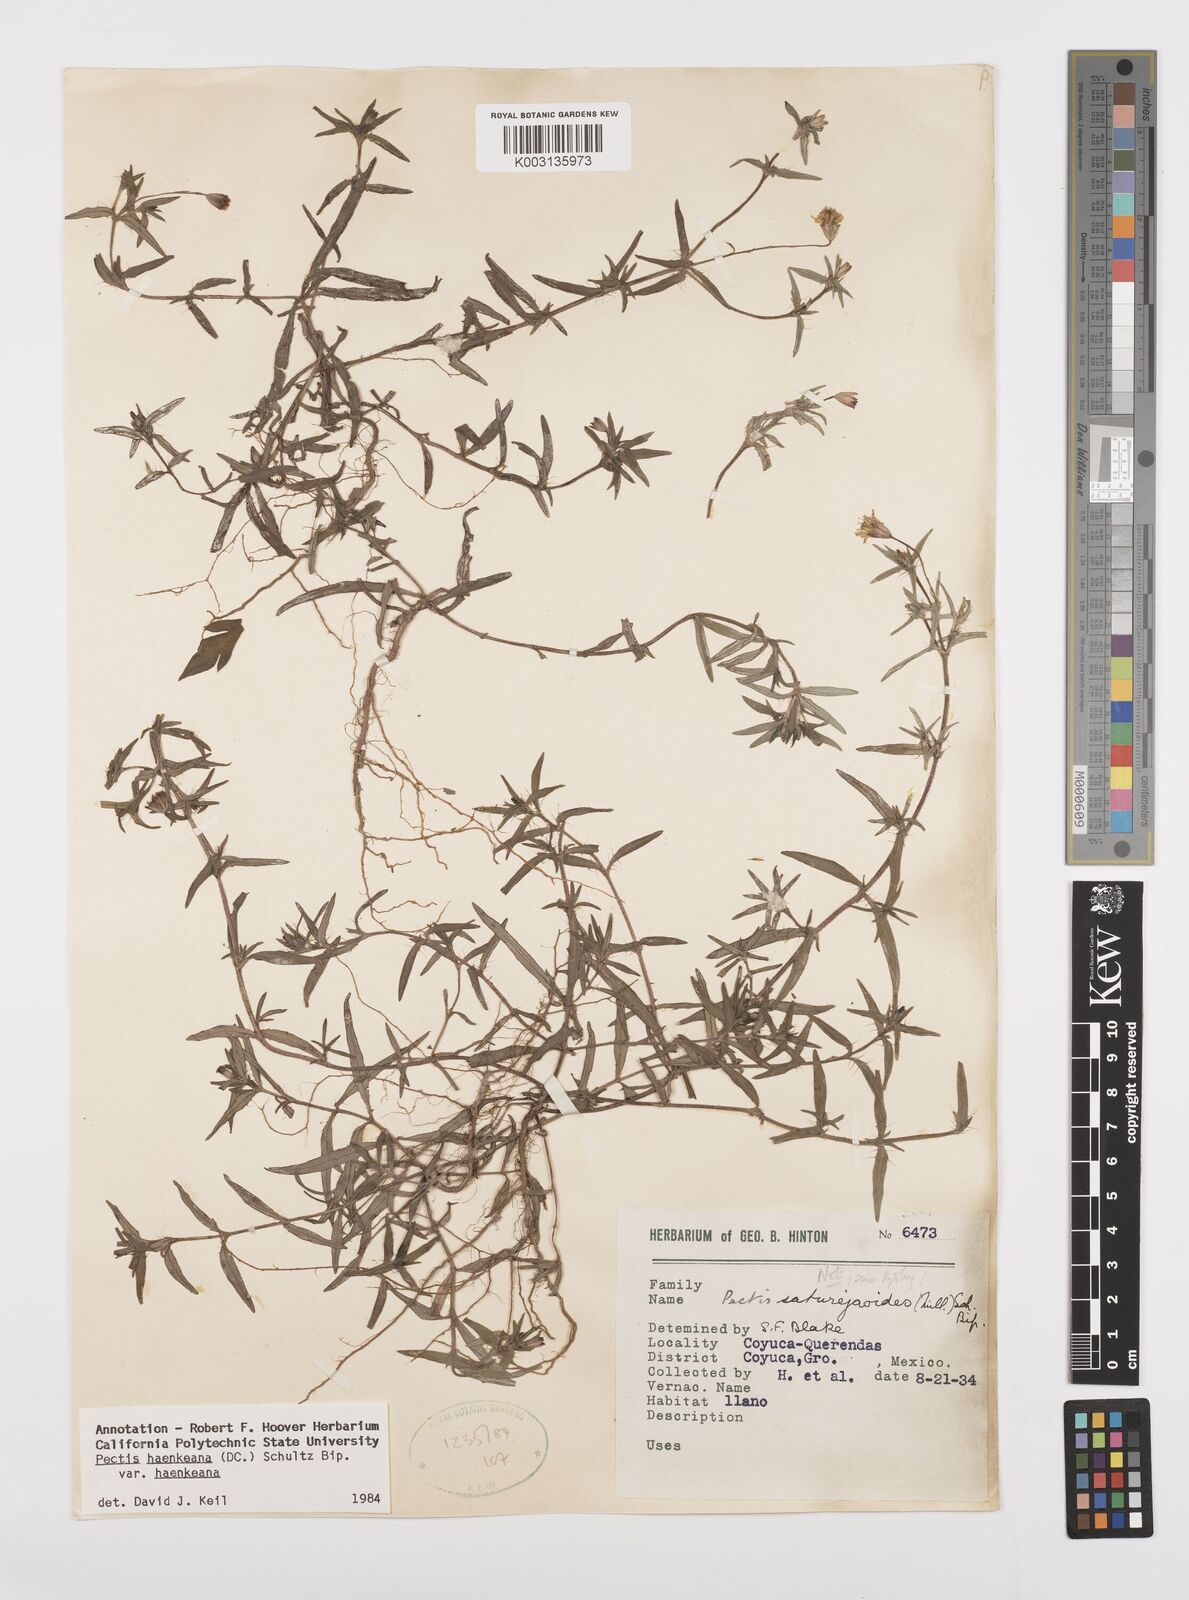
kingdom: Plantae
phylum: Tracheophyta
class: Magnoliopsida
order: Asterales
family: Asteraceae
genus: Pectis
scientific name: Pectis haenkeana
